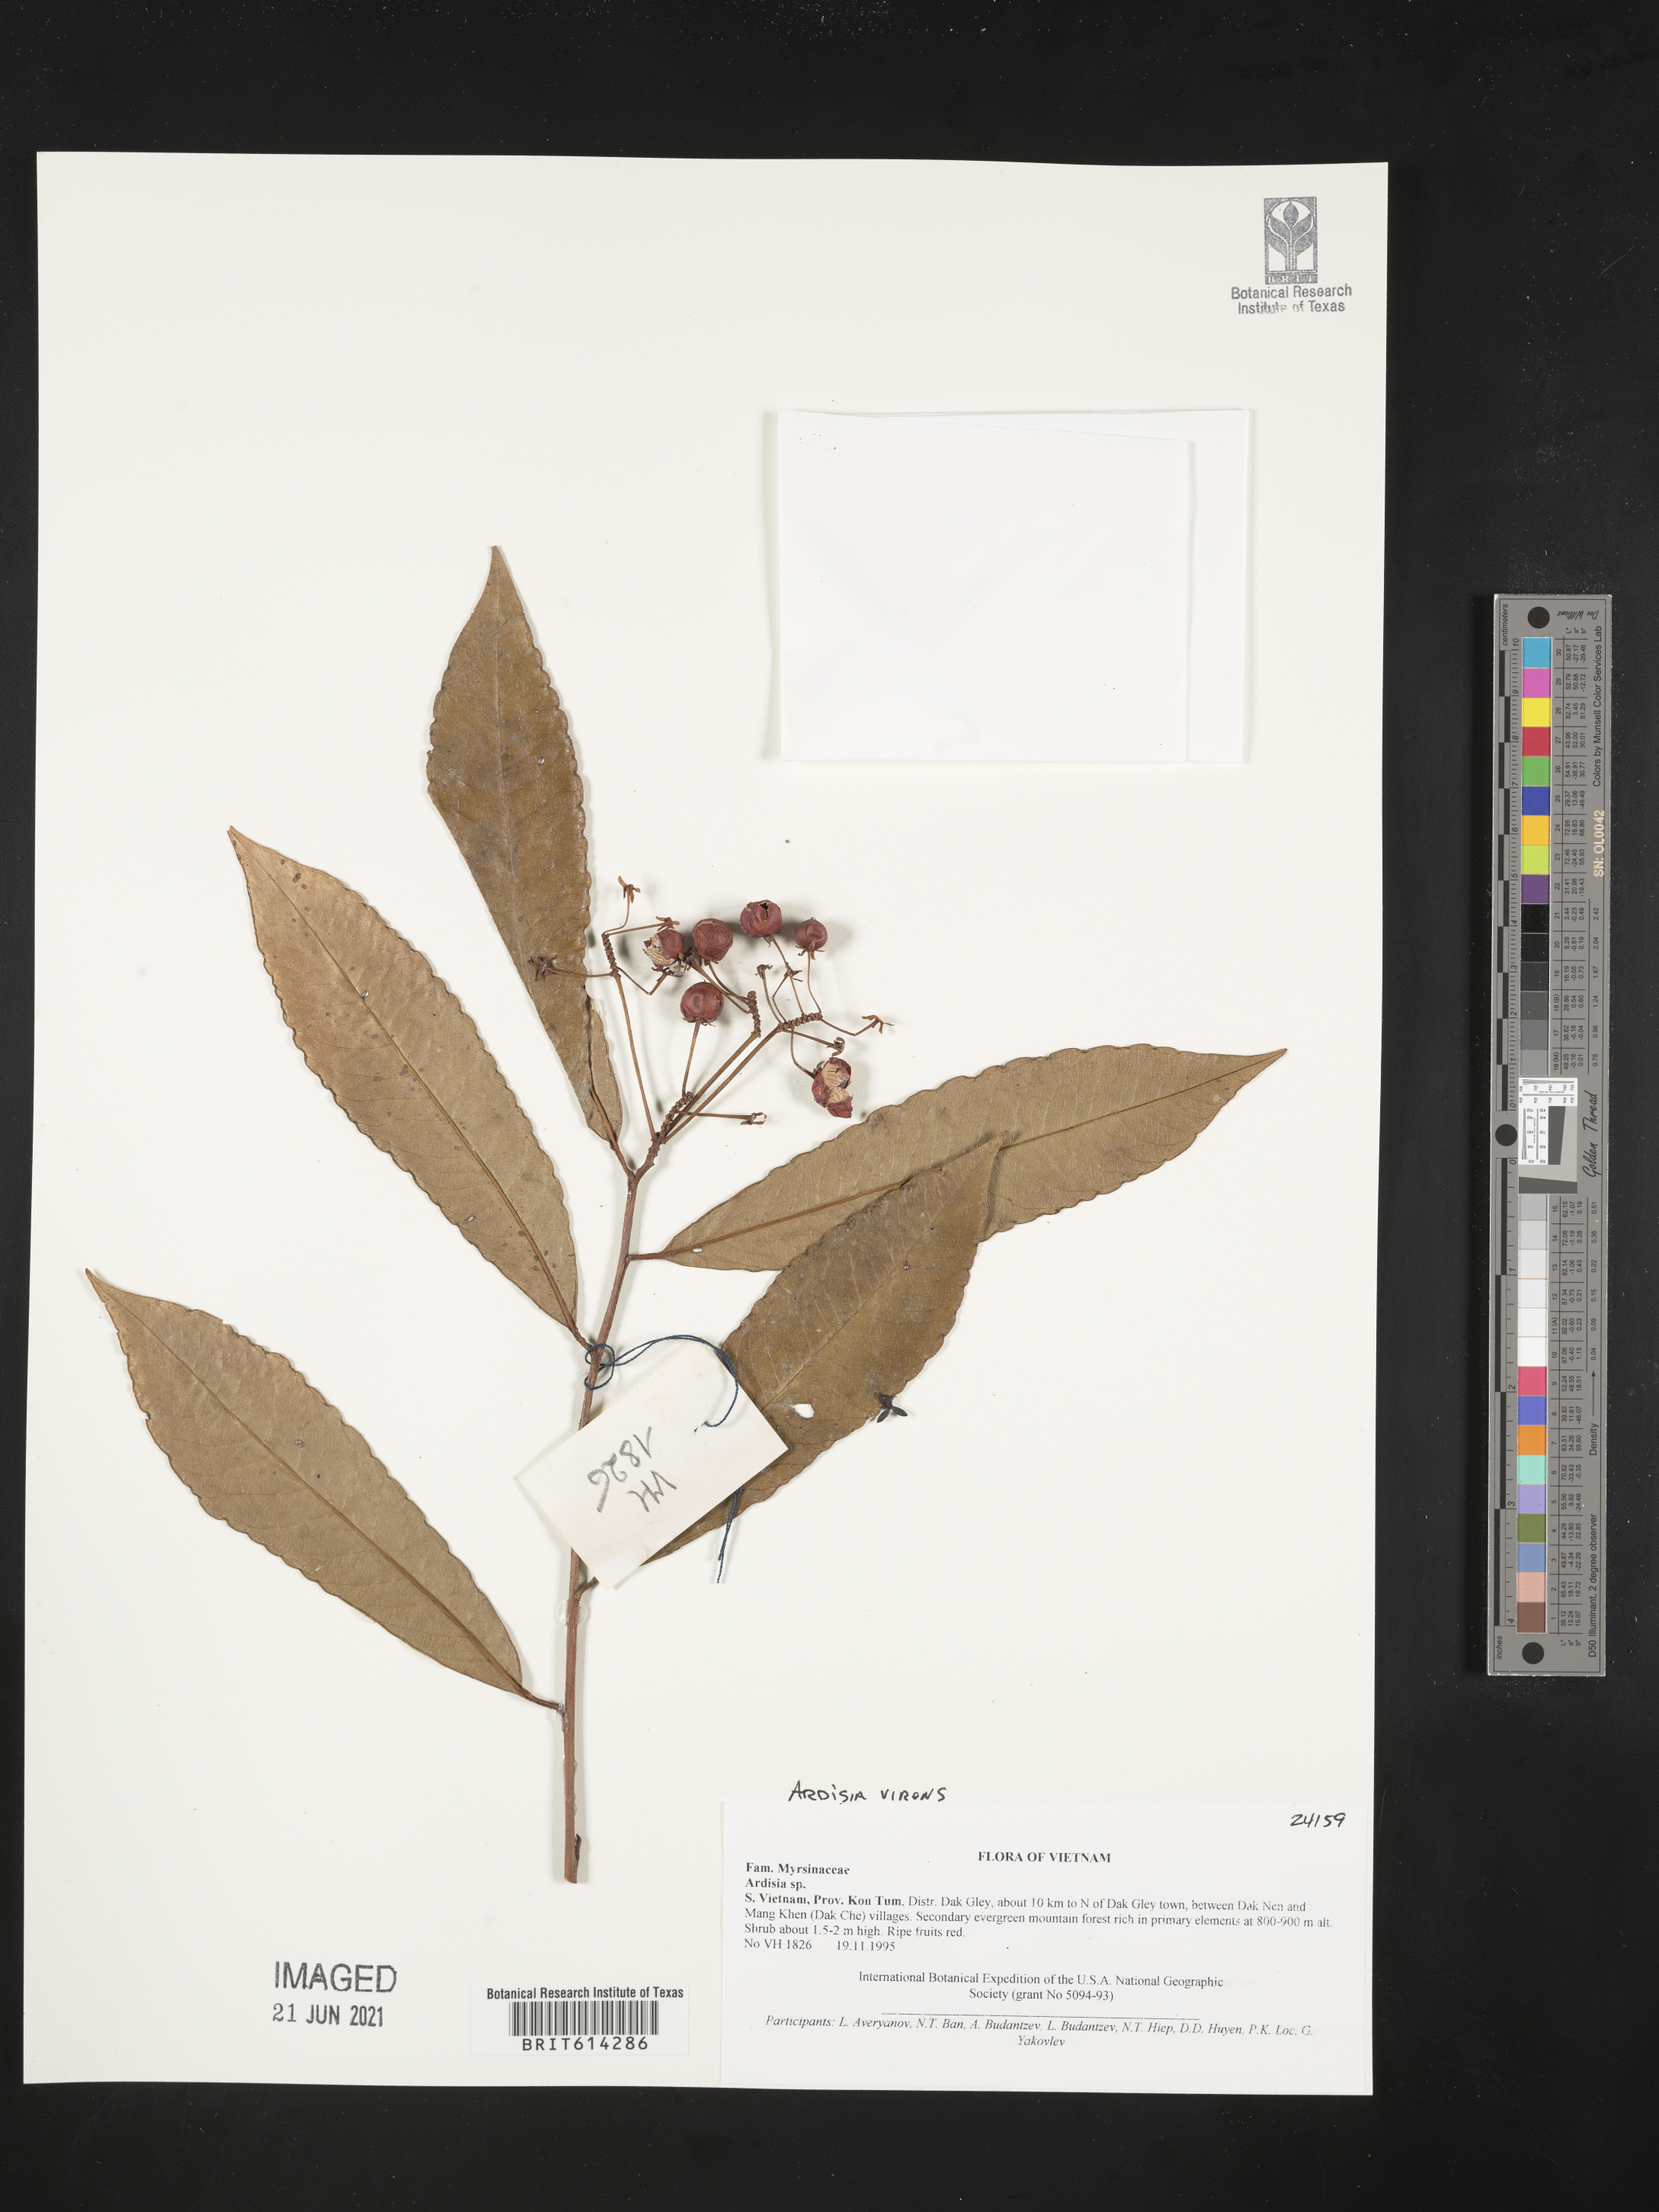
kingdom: Plantae
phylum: Tracheophyta
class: Magnoliopsida
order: Ericales
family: Primulaceae
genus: Ardisia
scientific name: Ardisia polysticta
